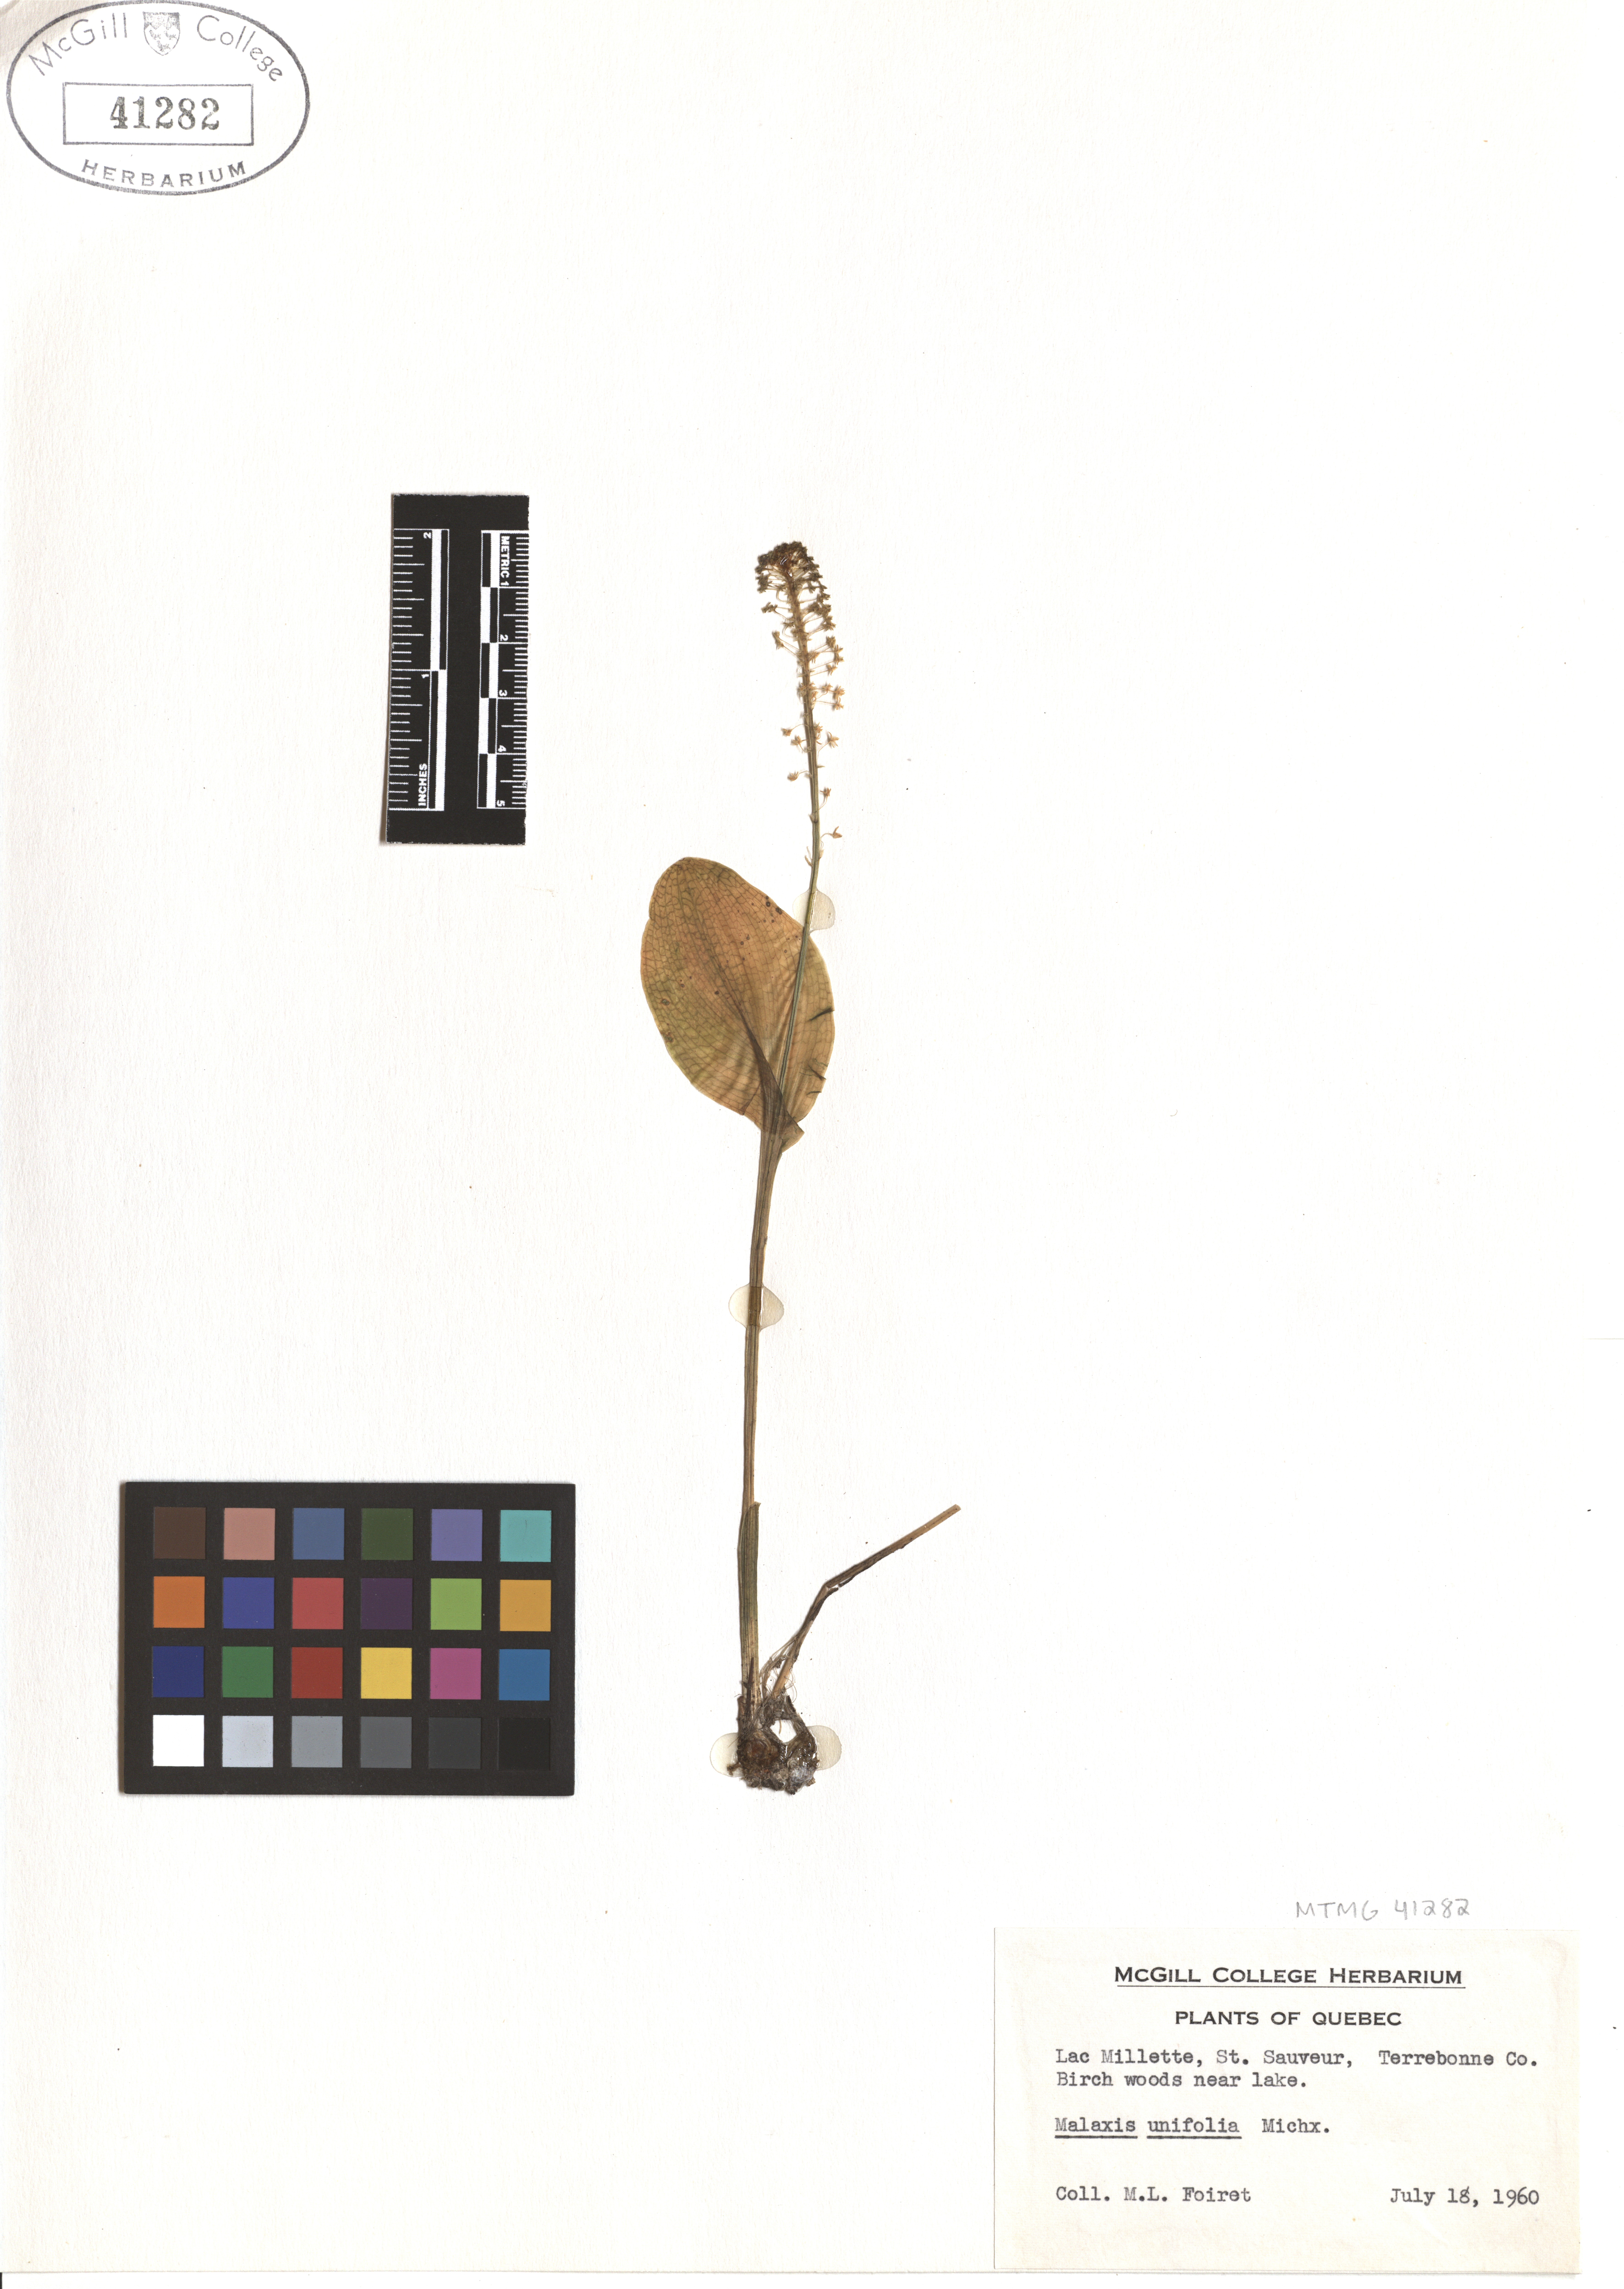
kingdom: Plantae
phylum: Tracheophyta
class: Liliopsida
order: Asparagales
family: Orchidaceae
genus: Malaxis
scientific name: Malaxis unifolia
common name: Green adder's-mouth
